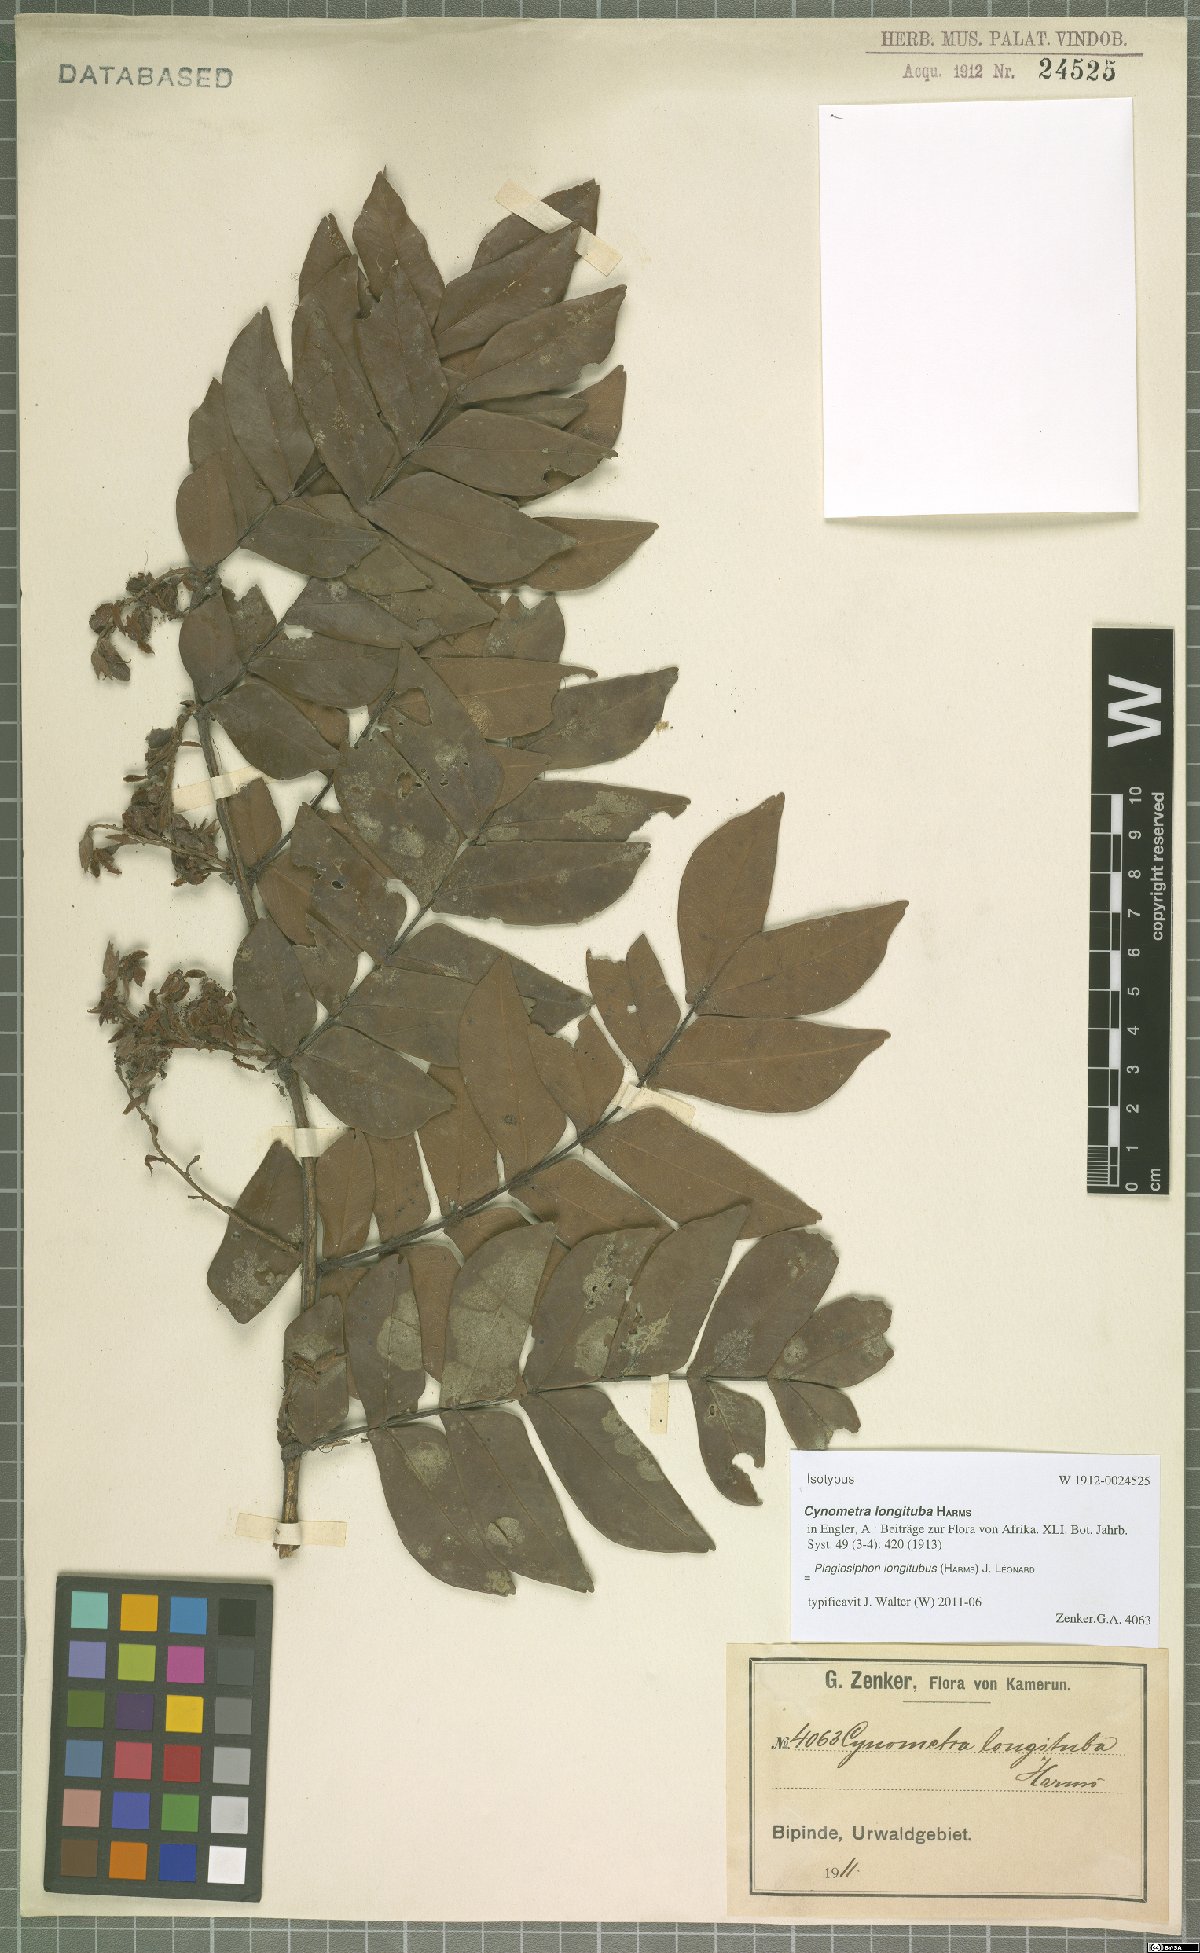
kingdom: Plantae
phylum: Tracheophyta
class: Magnoliopsida
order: Fabales
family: Fabaceae
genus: Plagiosiphon
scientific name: Plagiosiphon longituba
